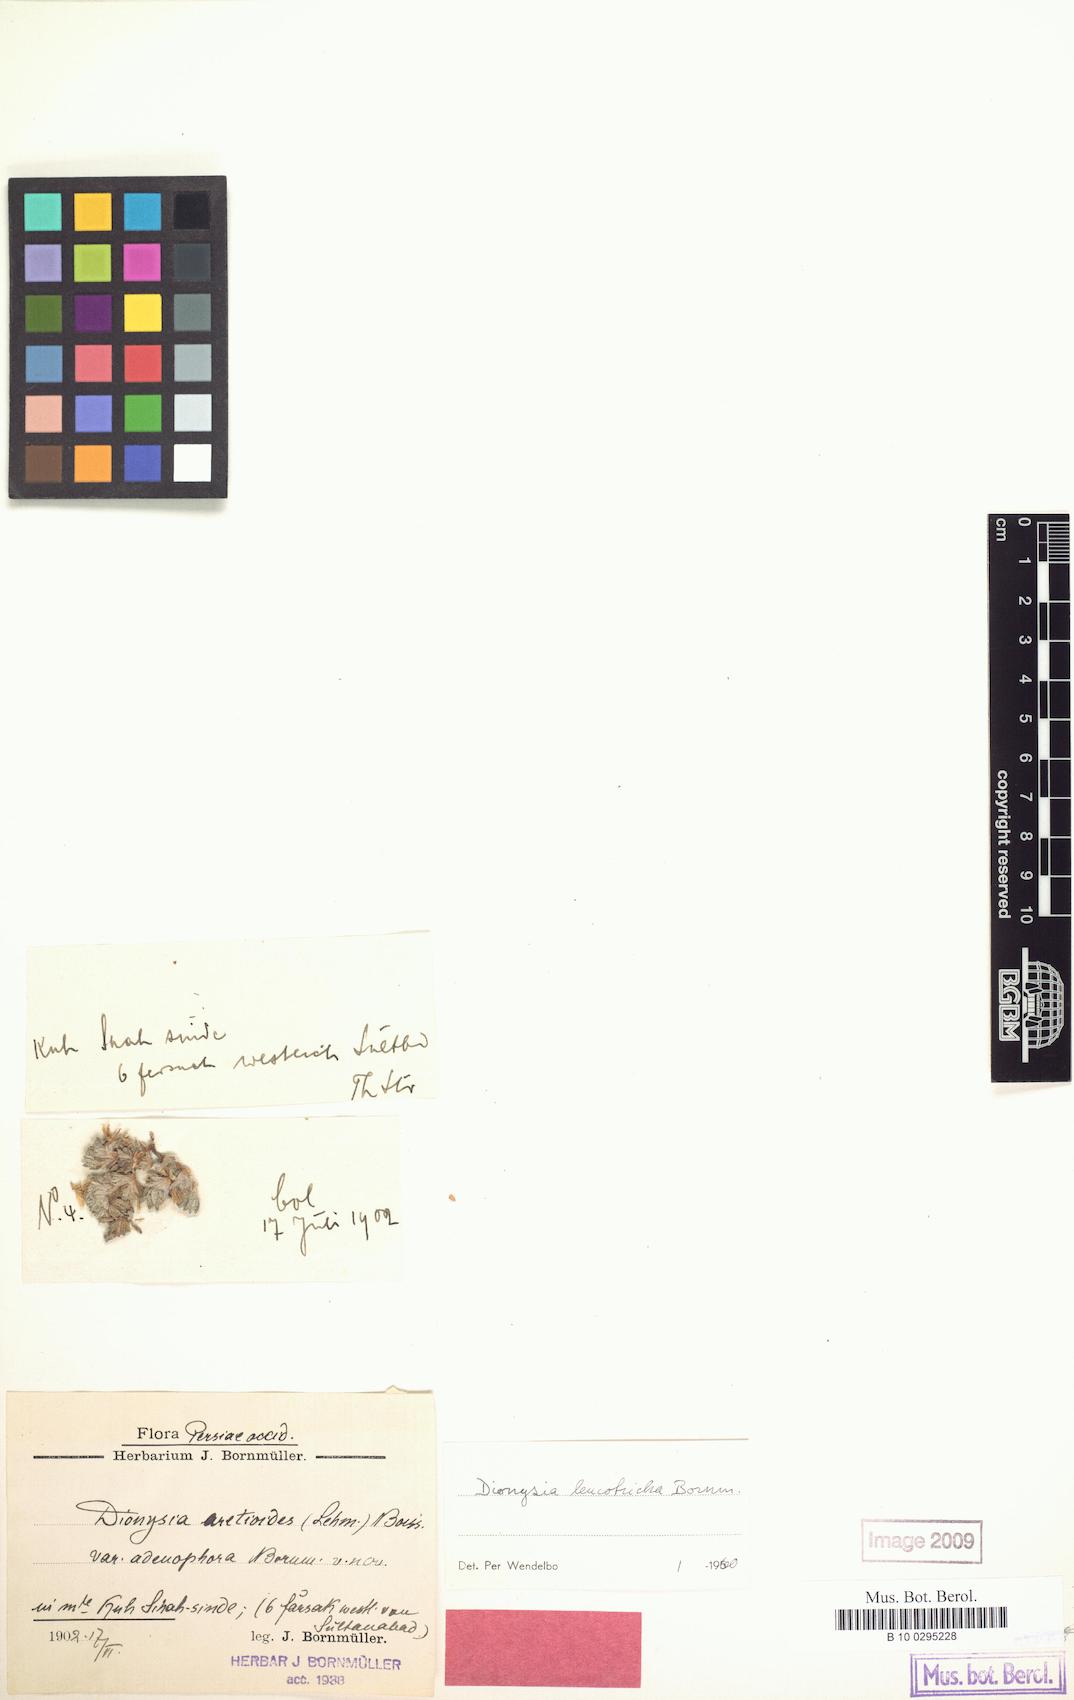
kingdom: Plantae
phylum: Tracheophyta
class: Magnoliopsida
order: Ericales
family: Primulaceae
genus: Dionysia
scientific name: Dionysia leucotricha
